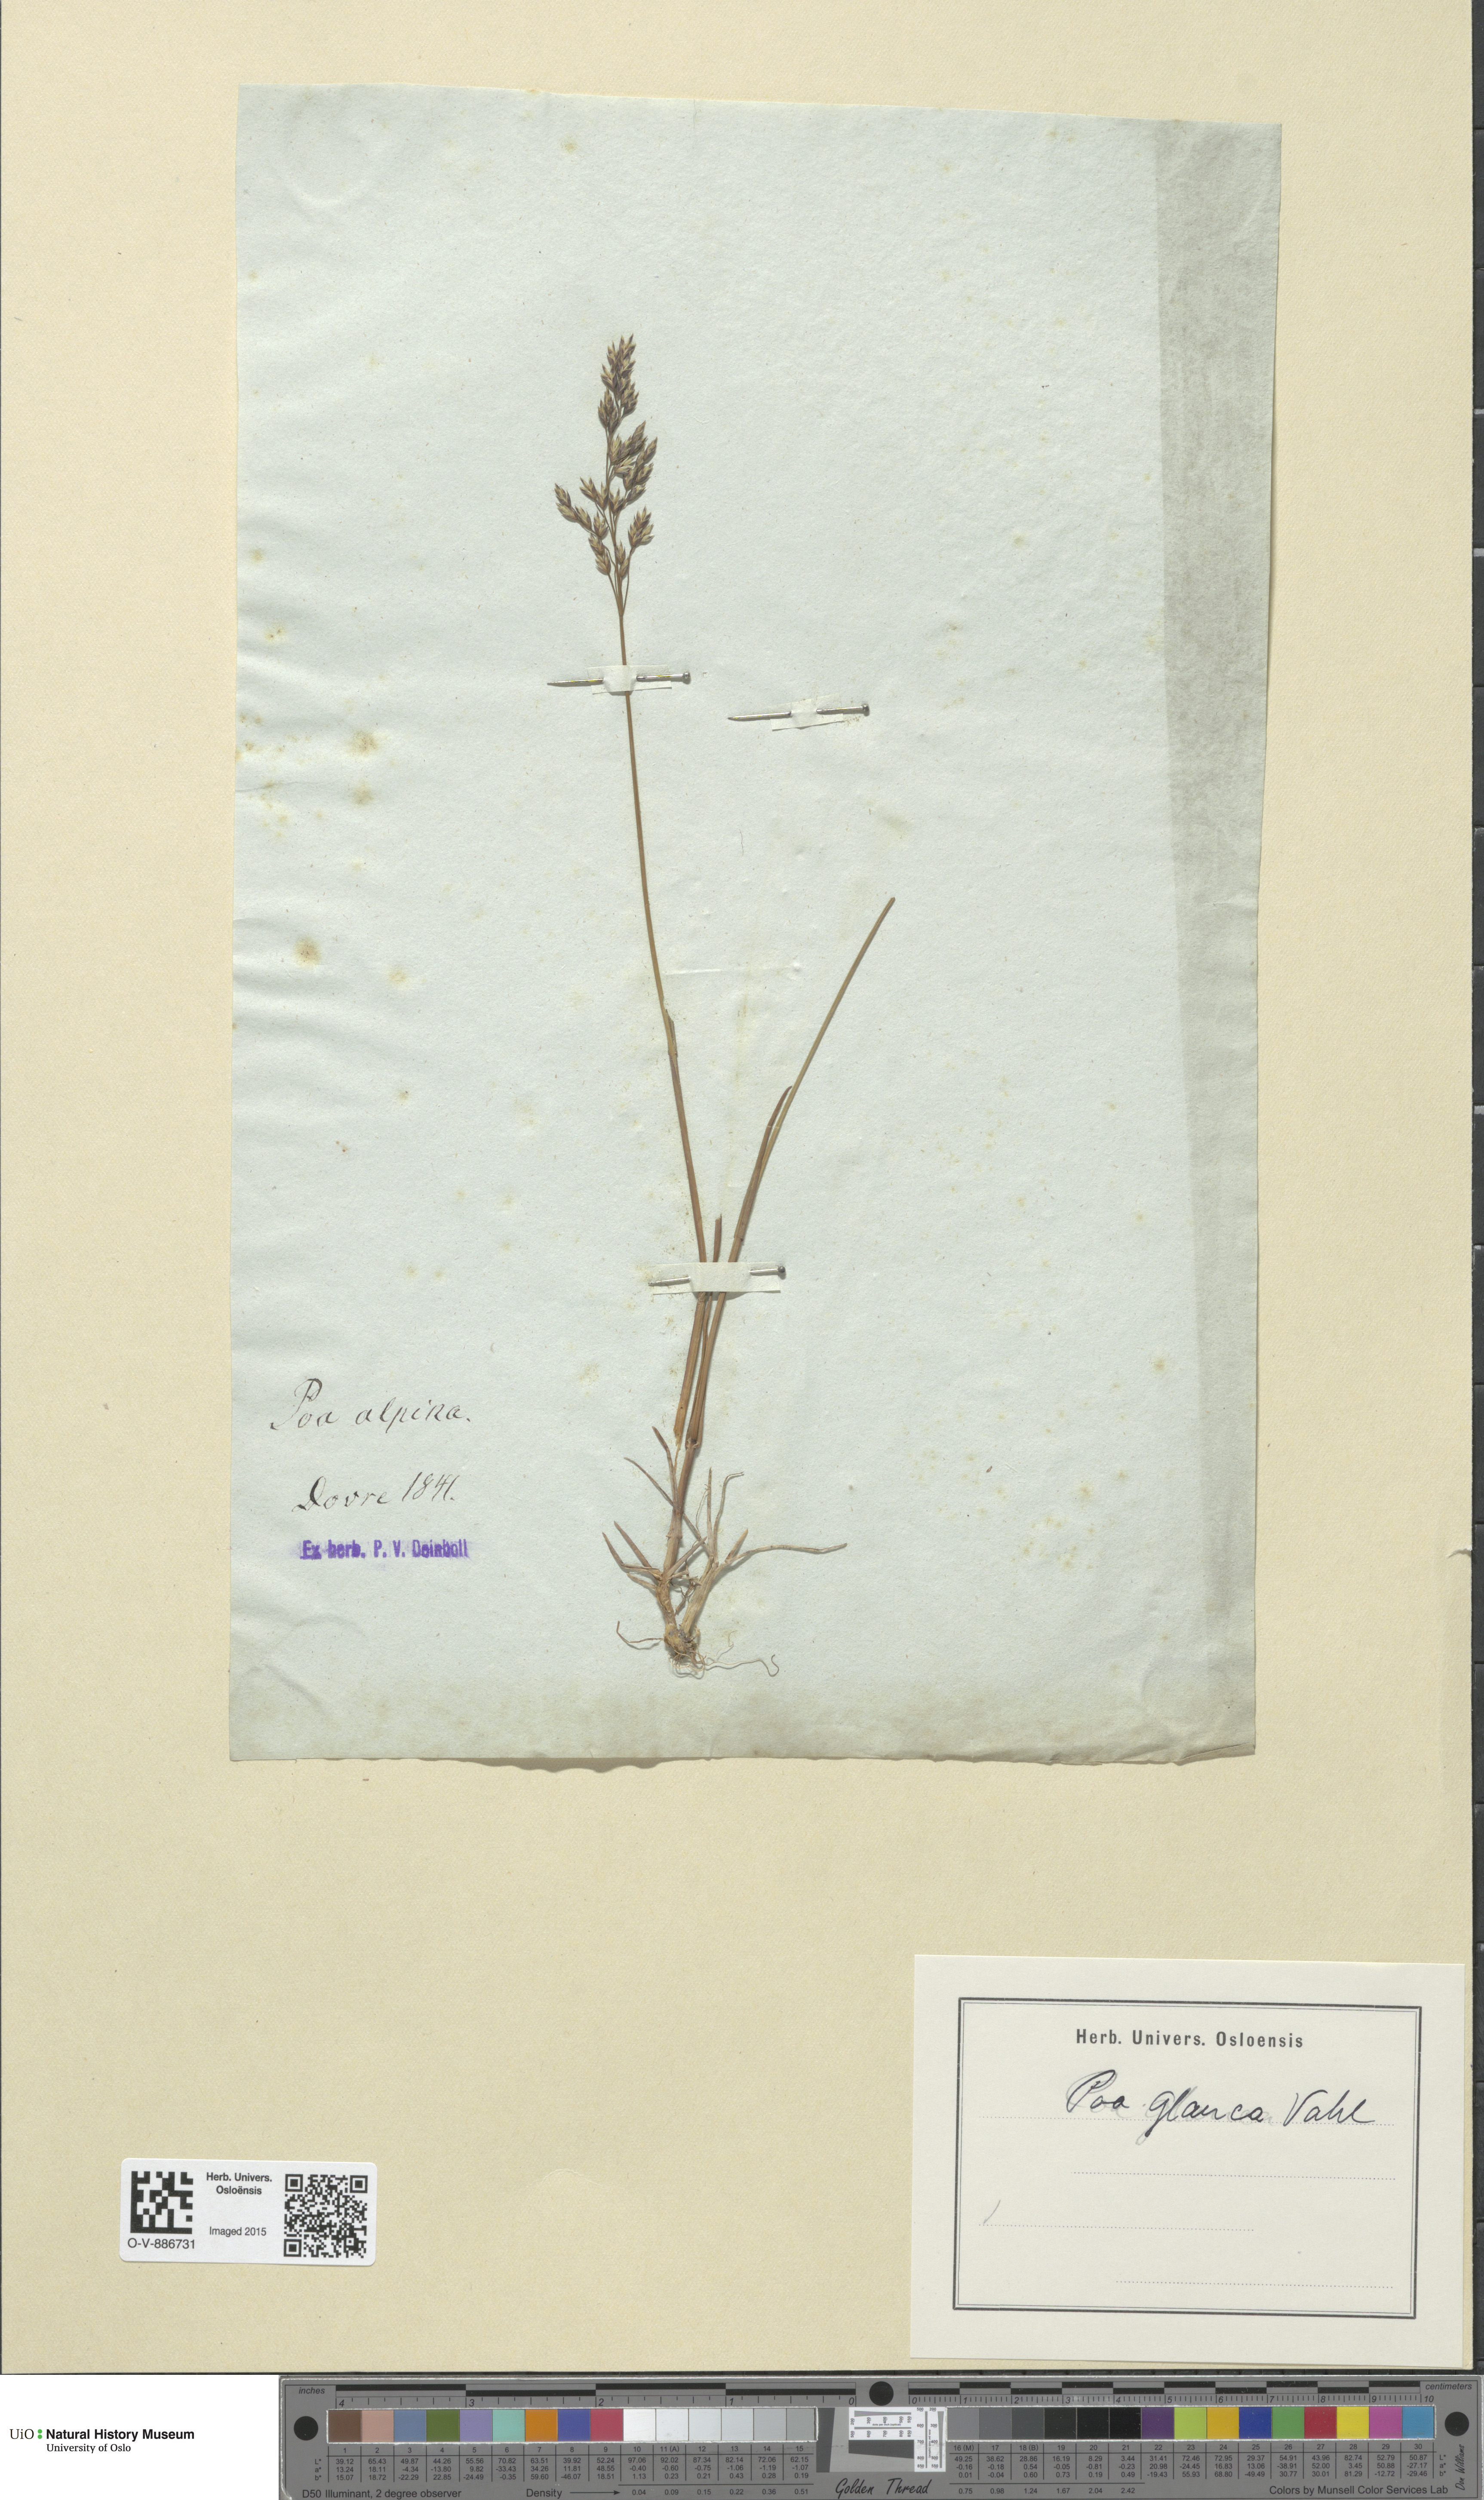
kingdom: Plantae
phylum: Tracheophyta
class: Liliopsida
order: Poales
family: Poaceae
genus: Poa
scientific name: Poa glauca
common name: Glaucous bluegrass
